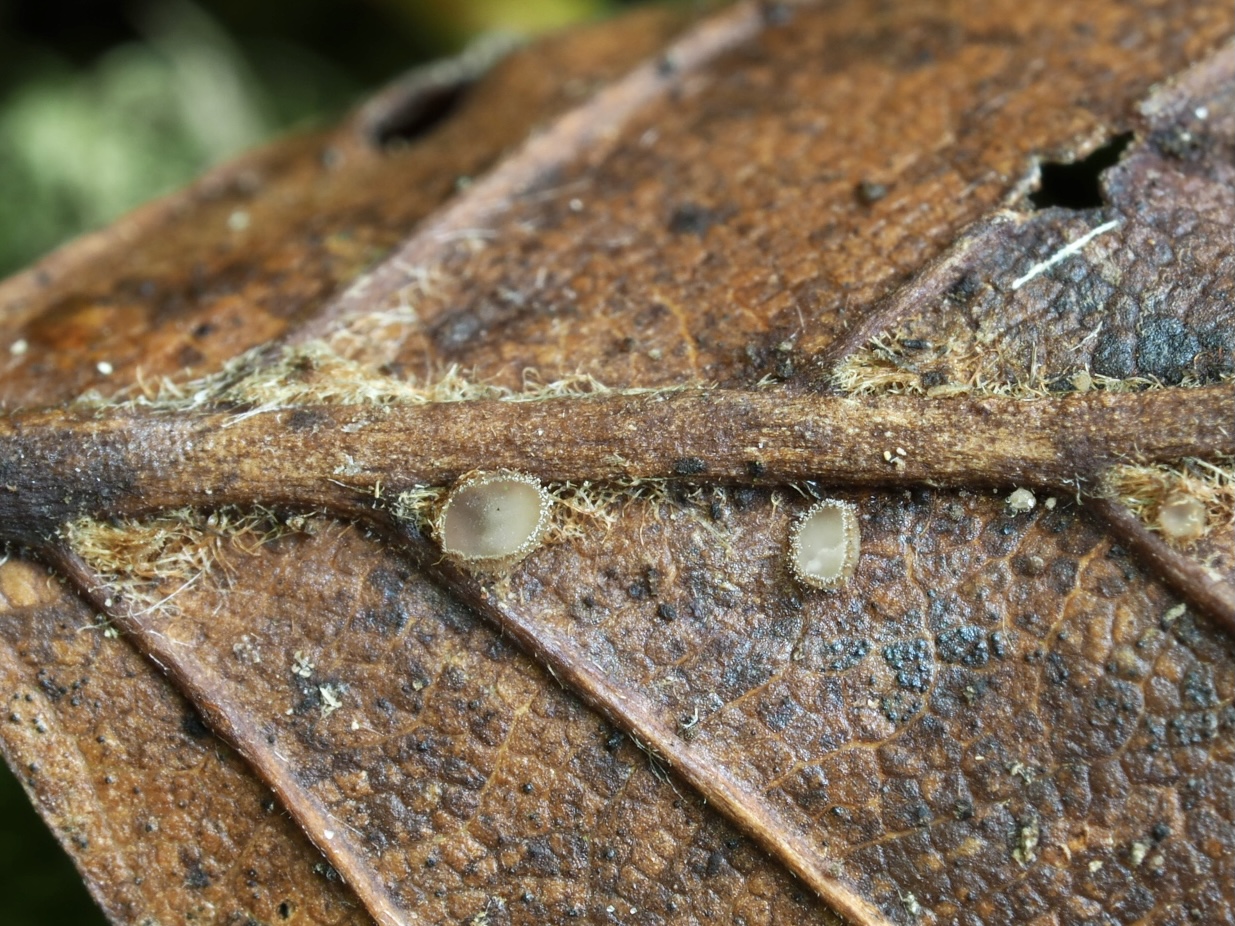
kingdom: Fungi
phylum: Ascomycota
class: Leotiomycetes
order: Helotiales
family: Lachnaceae
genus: Brunnipila
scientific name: Brunnipila fuscescens
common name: bøge-frynseskive
